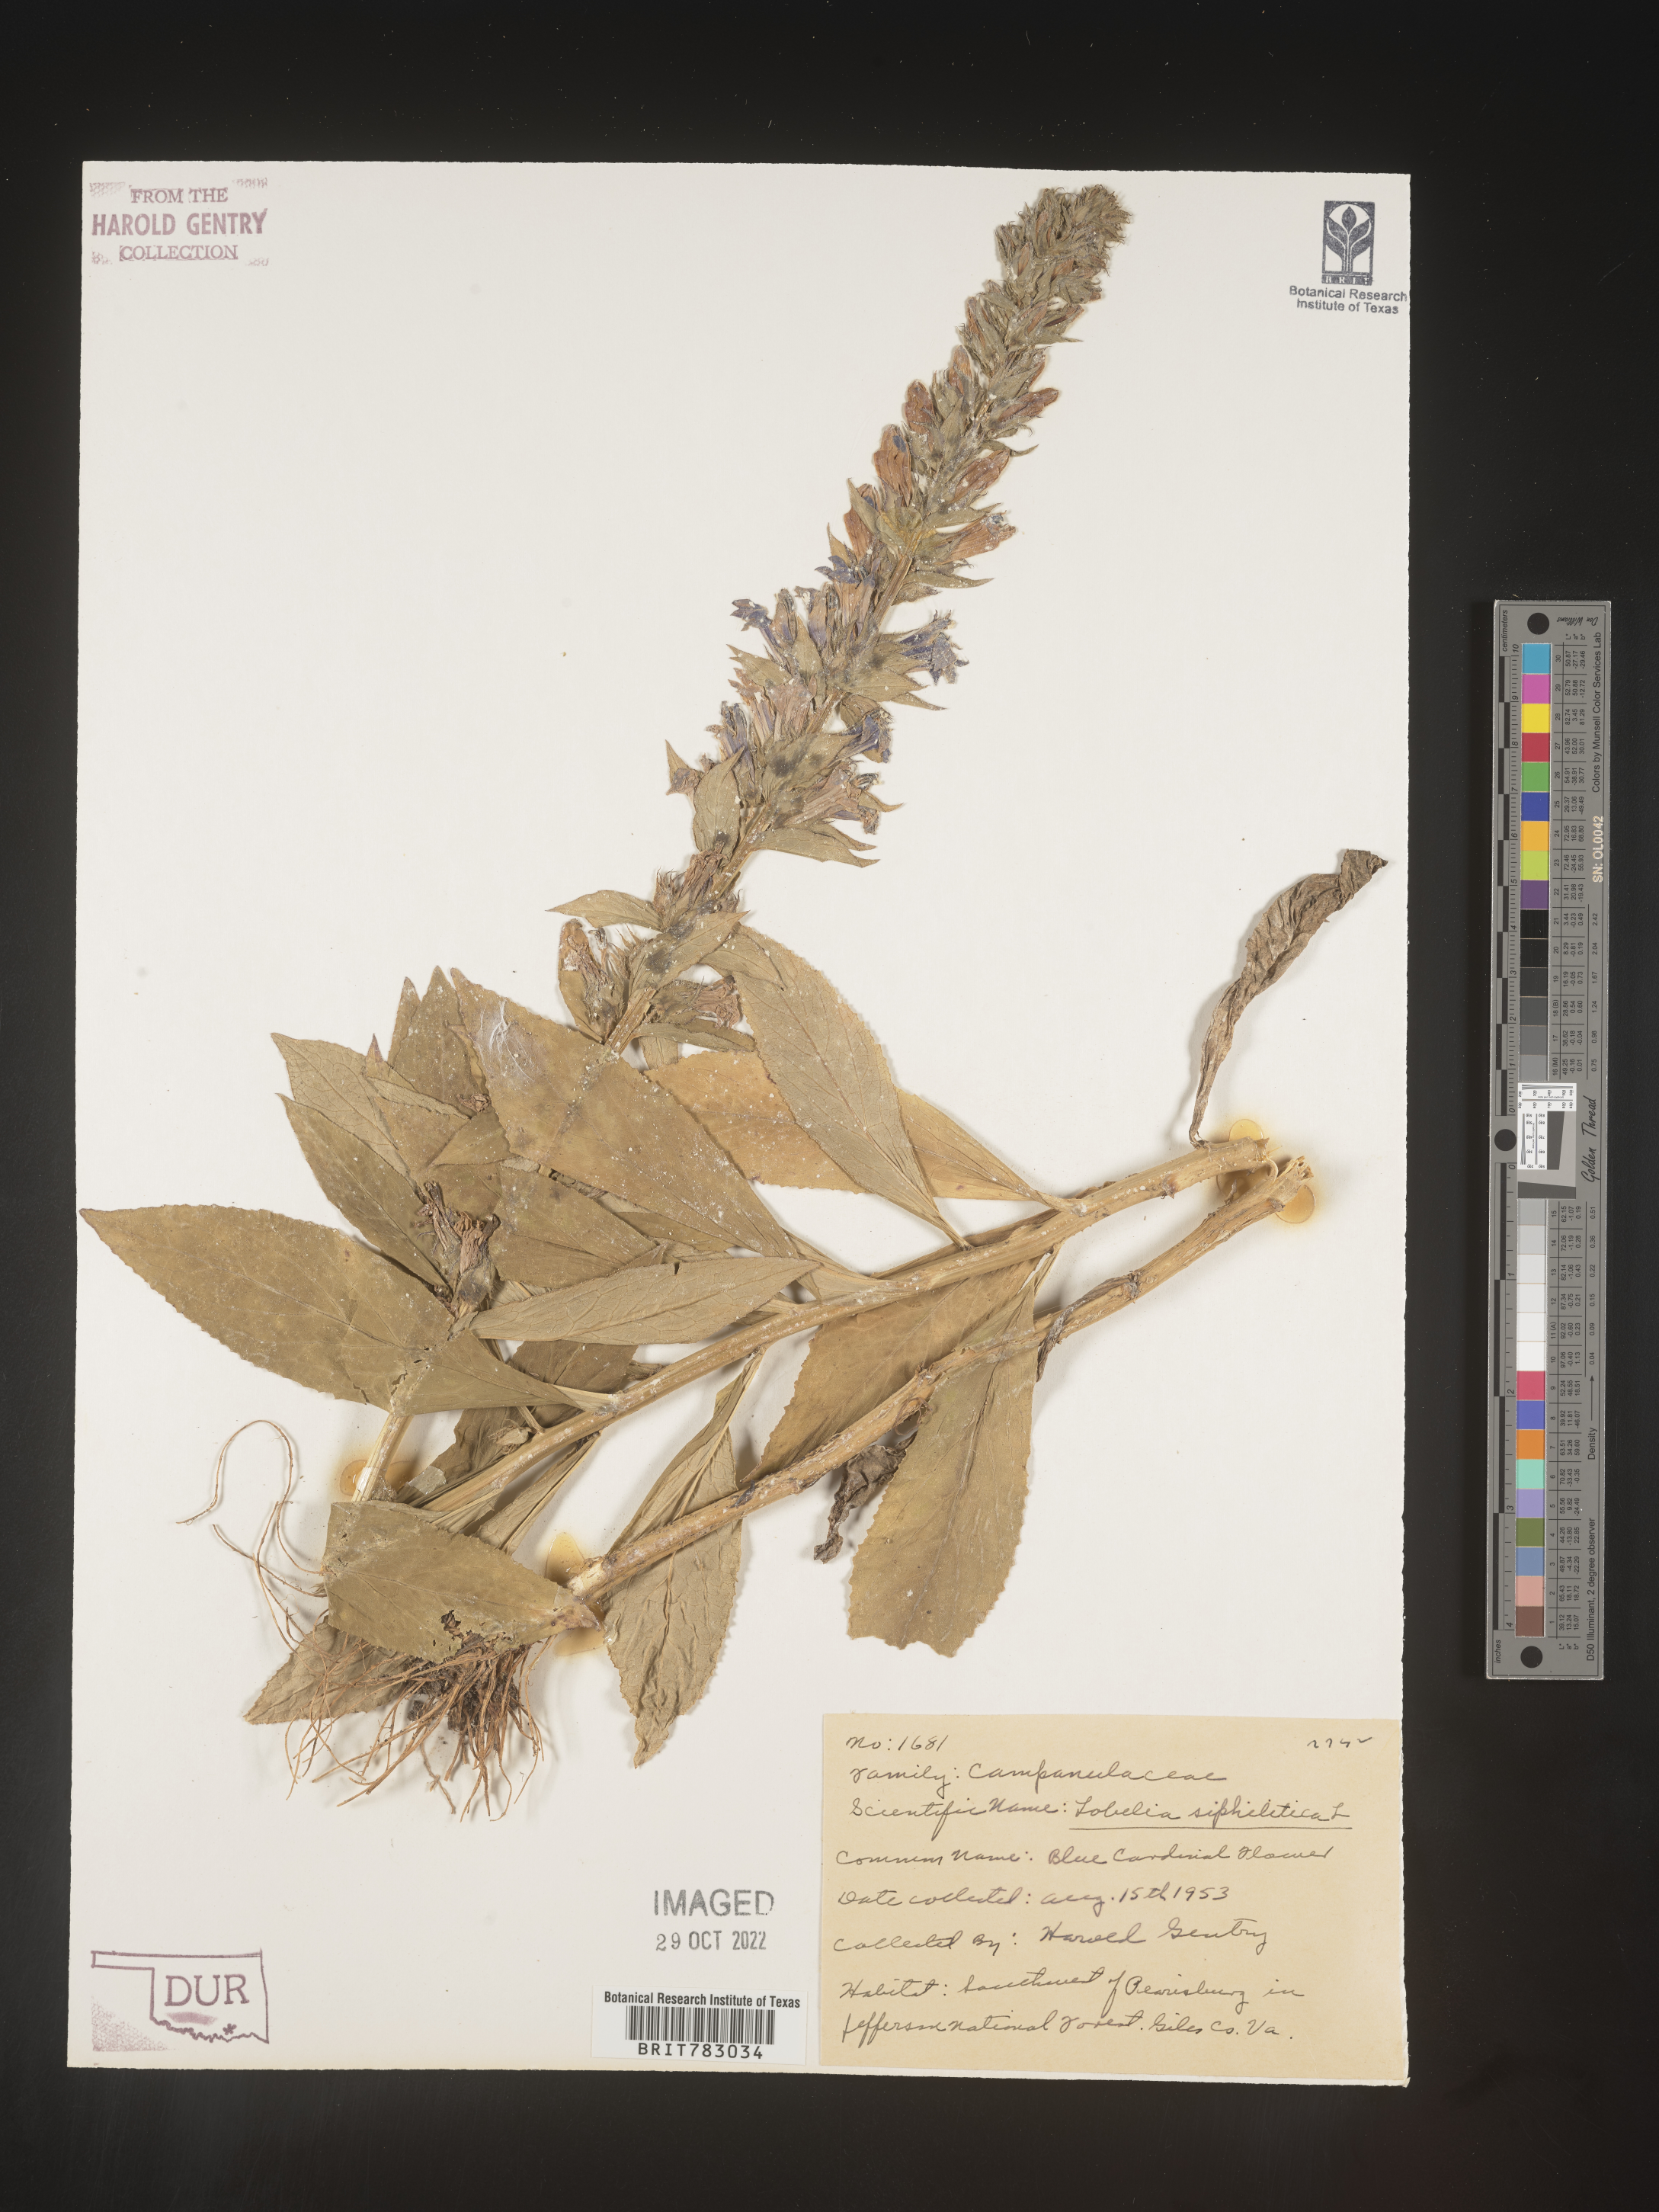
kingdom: Plantae
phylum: Tracheophyta
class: Magnoliopsida
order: Asterales
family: Campanulaceae
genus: Lobelia
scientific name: Lobelia siphilitica
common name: Great lobelia
